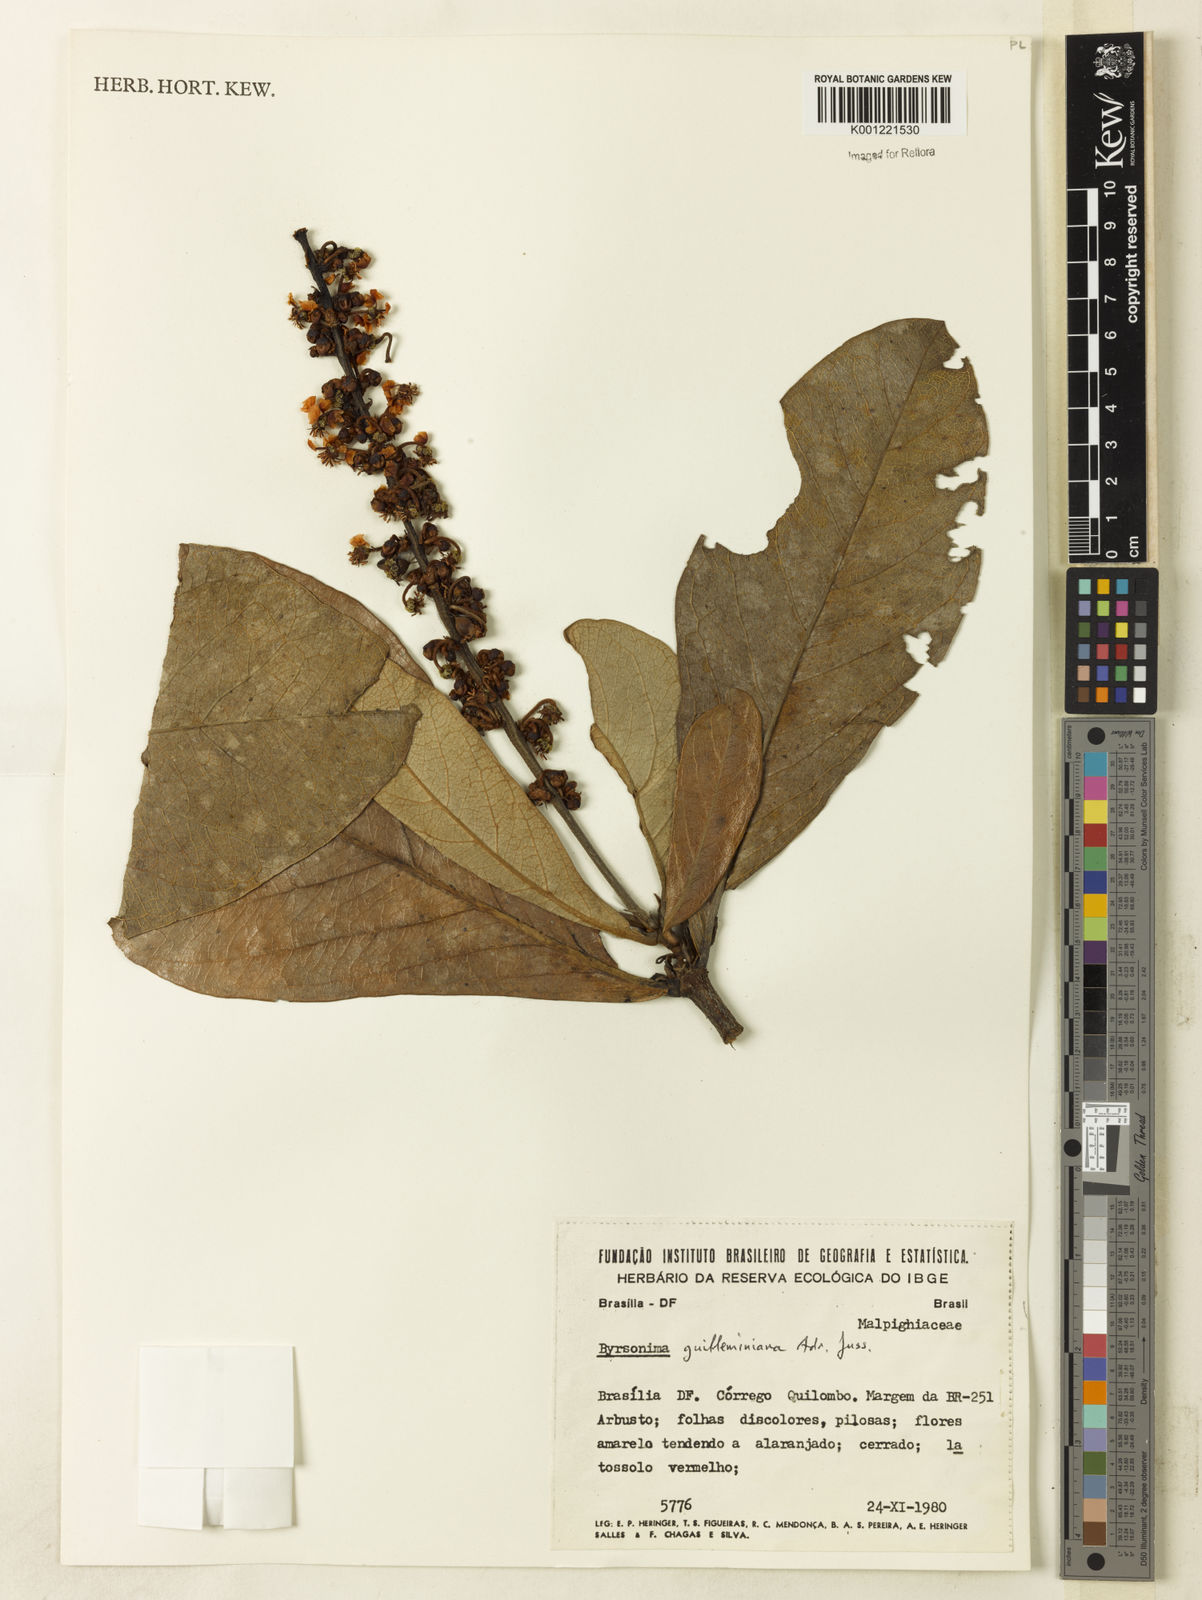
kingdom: Plantae
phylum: Tracheophyta
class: Magnoliopsida
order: Malpighiales
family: Malpighiaceae
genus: Byrsonima
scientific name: Byrsonima guilleminiana
